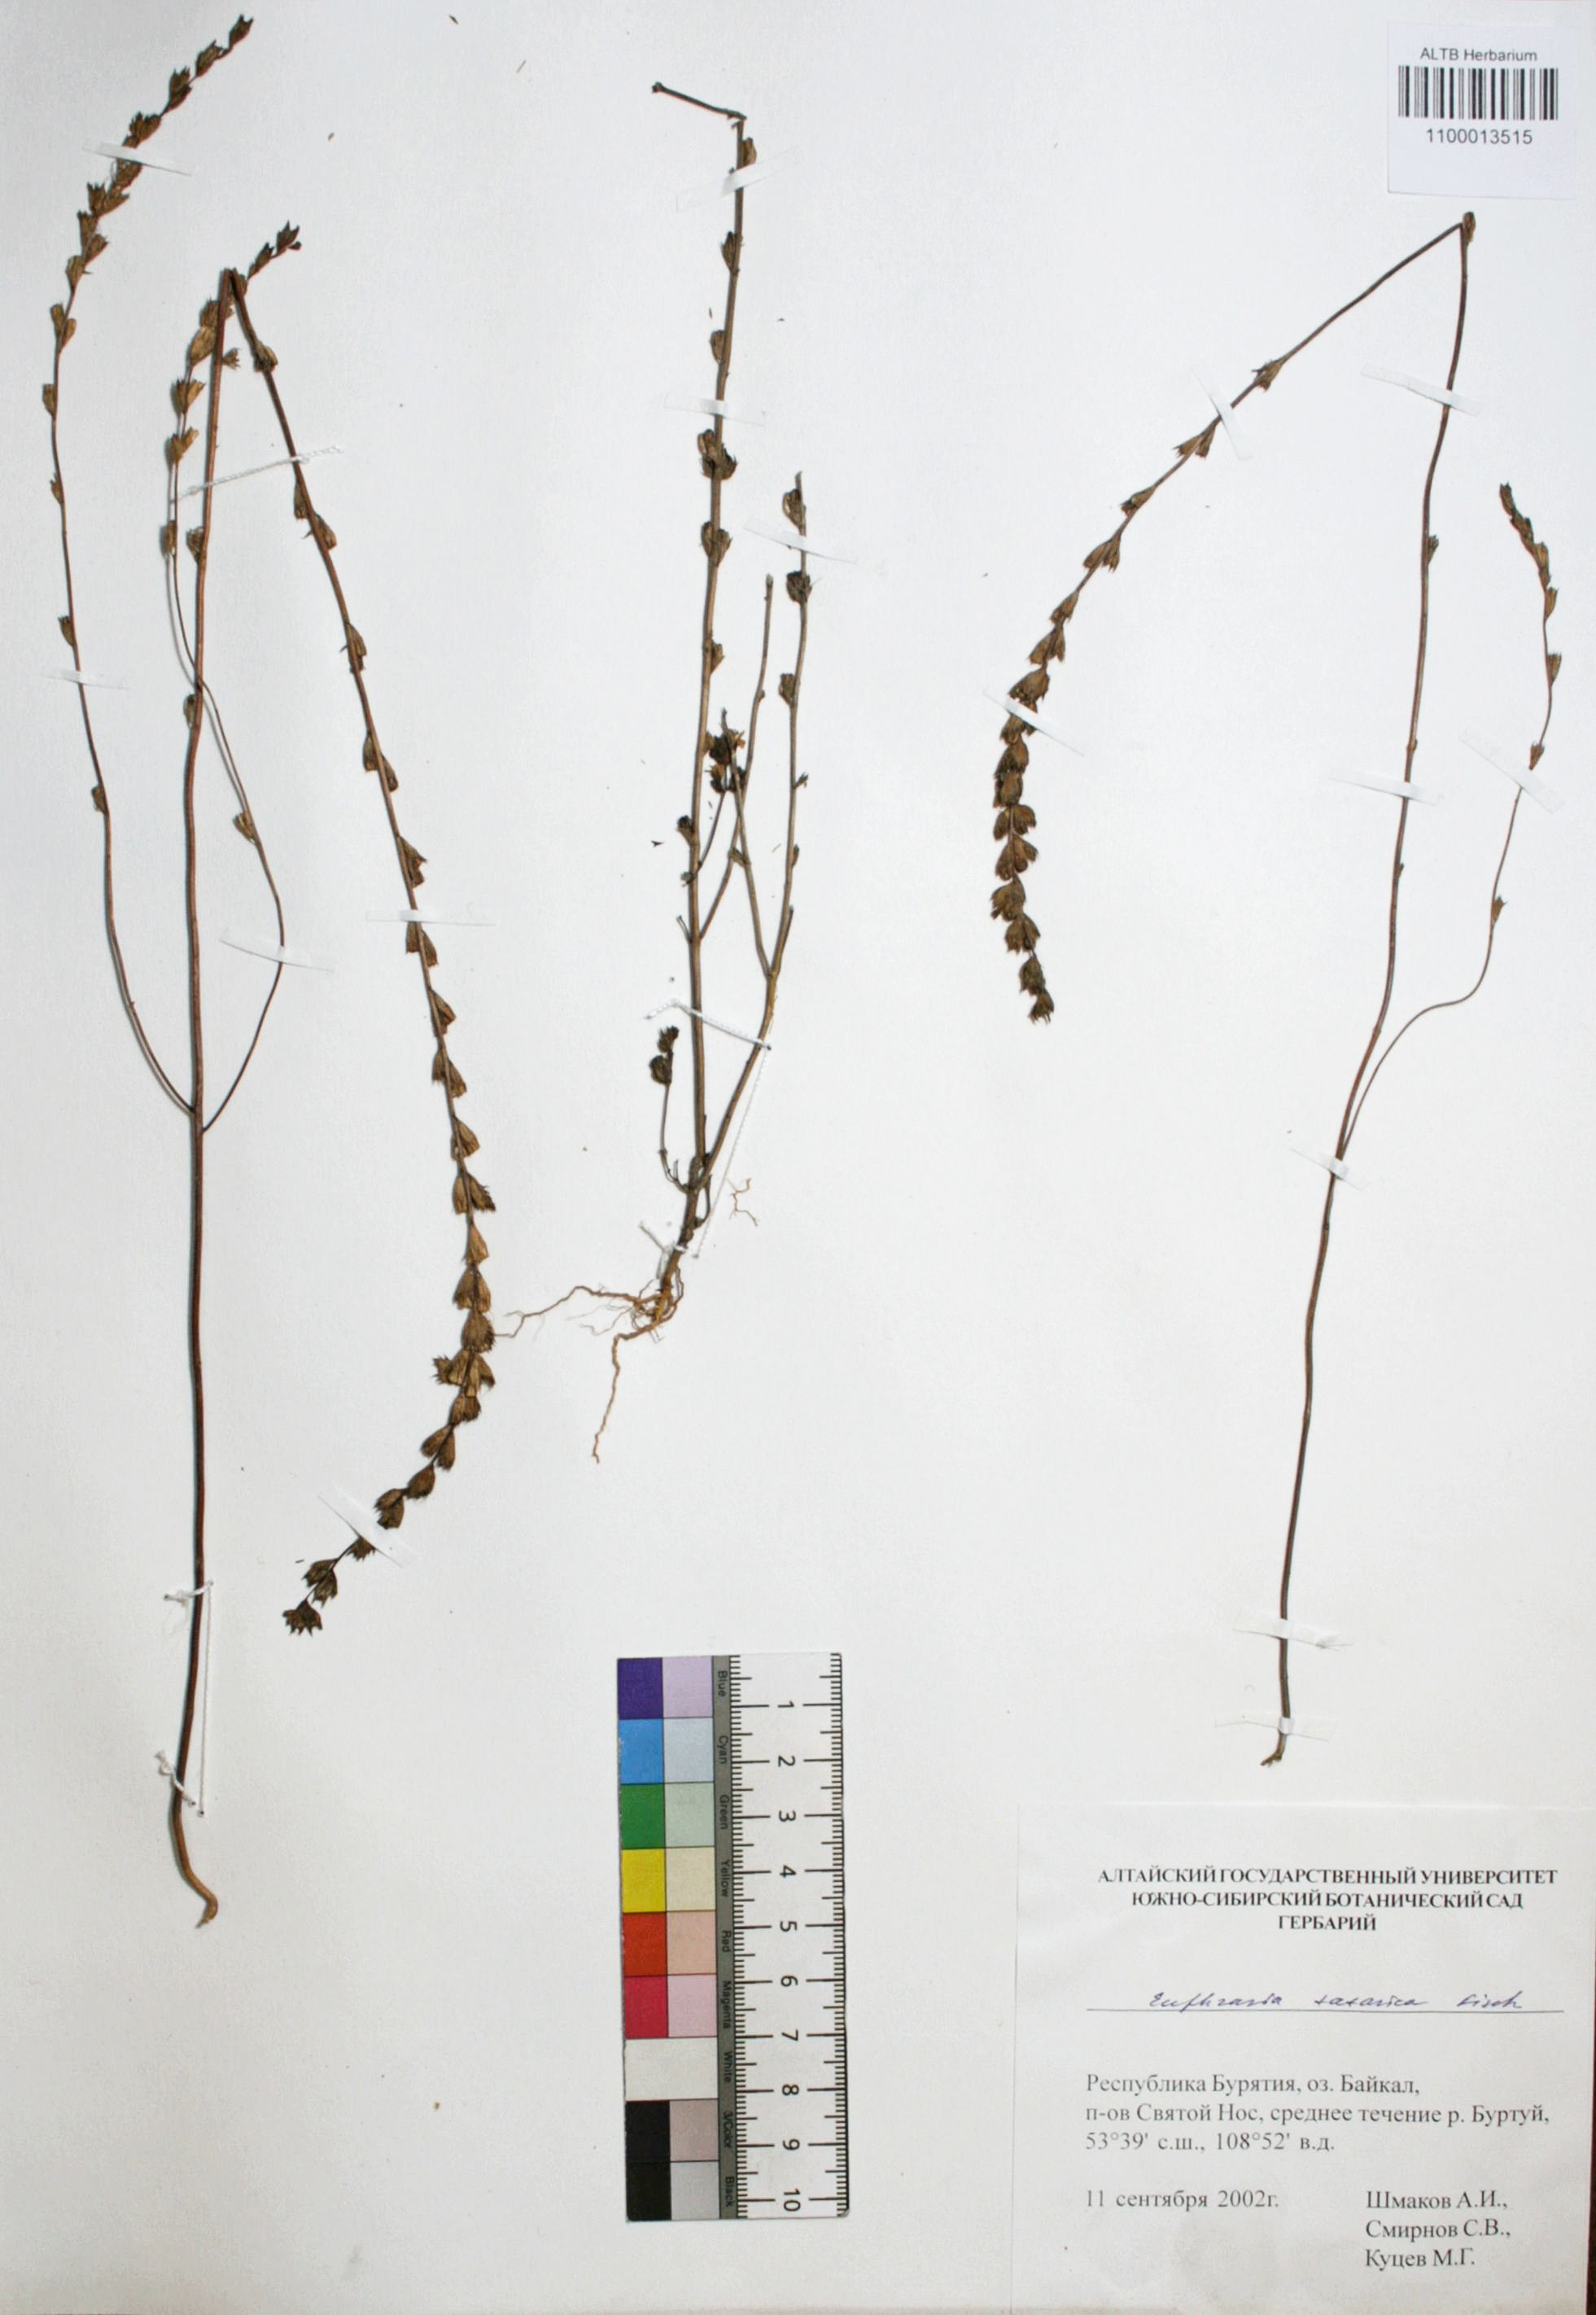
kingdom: Plantae
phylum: Tracheophyta
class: Magnoliopsida
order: Lamiales
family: Orobanchaceae
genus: Euphrasia
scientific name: Euphrasia pectinata
